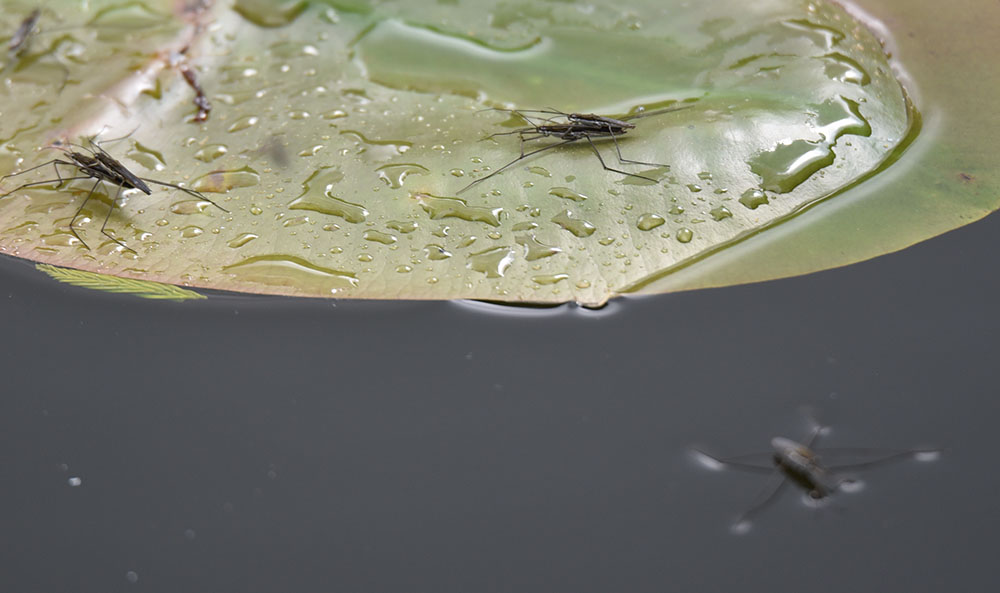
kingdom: Animalia
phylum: Arthropoda
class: Insecta
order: Hemiptera
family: Gerridae
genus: Gerris
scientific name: Gerris
